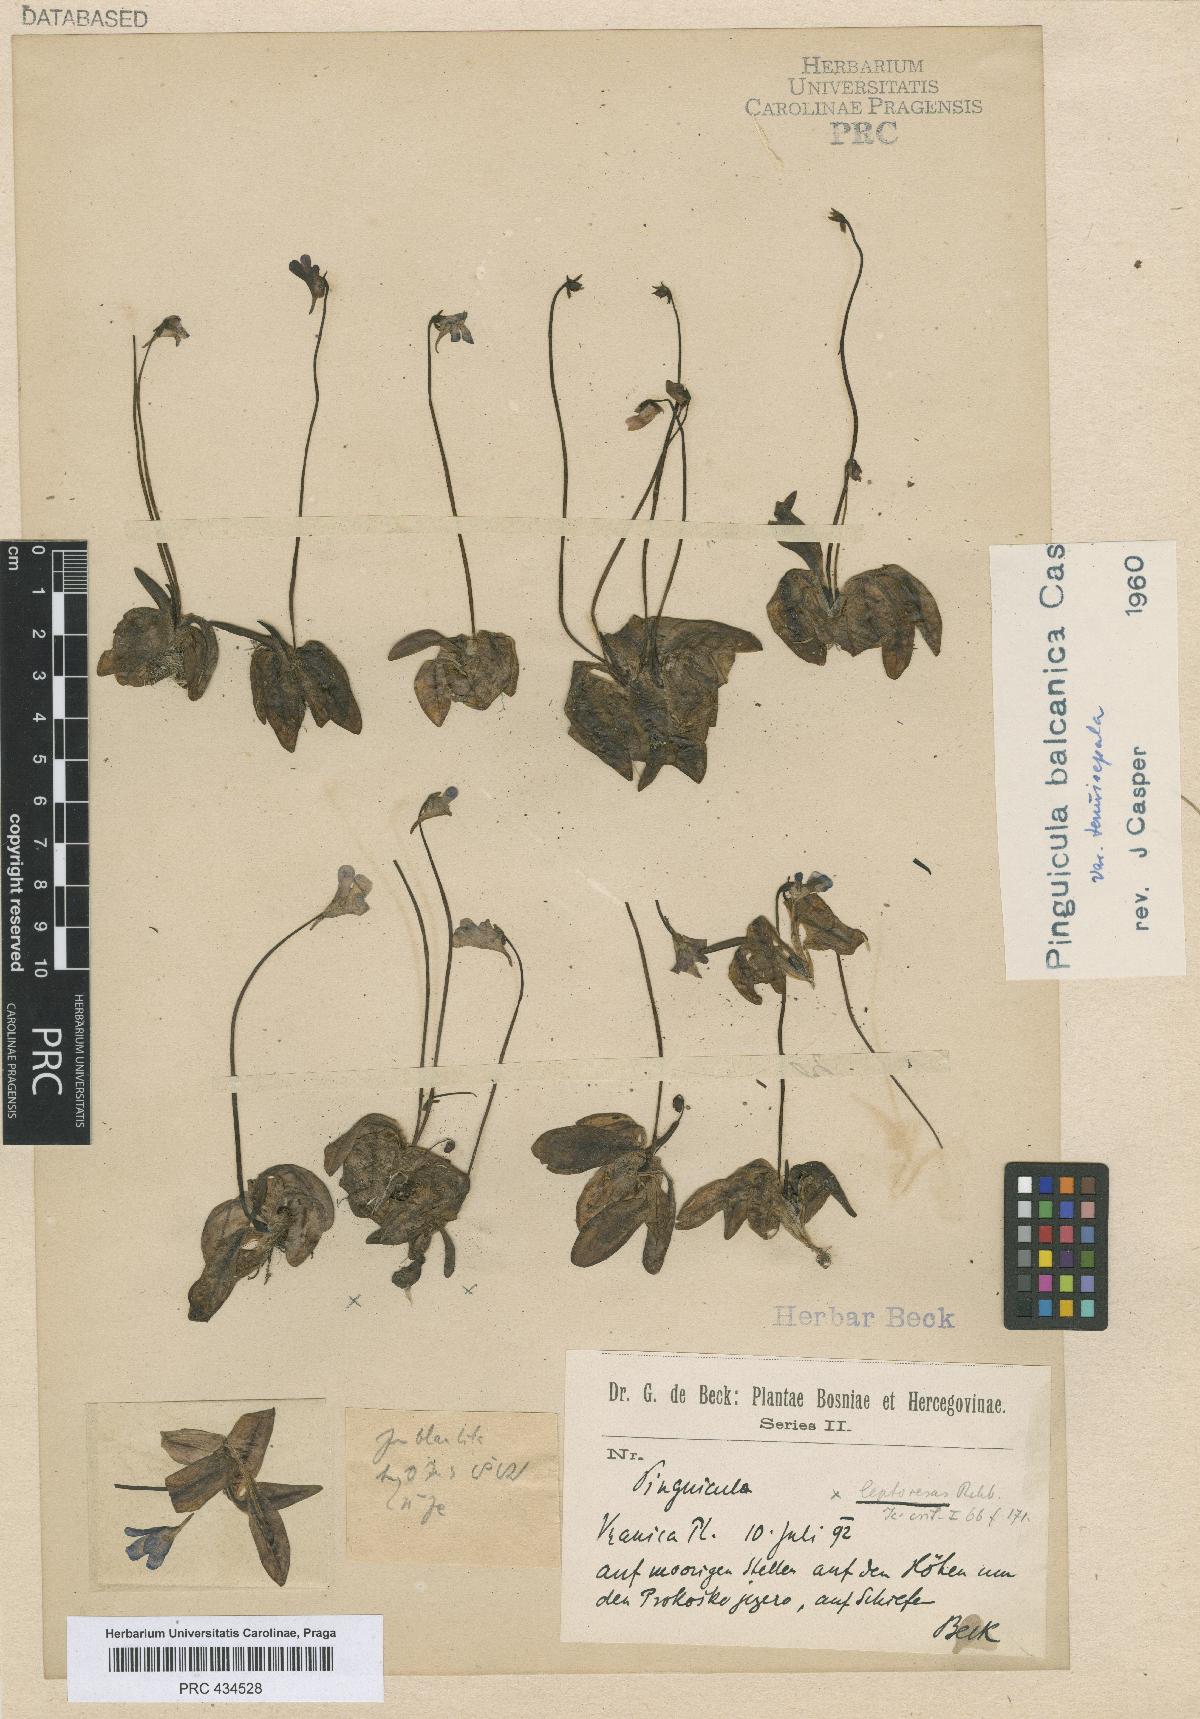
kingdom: Plantae
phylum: Tracheophyta
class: Magnoliopsida
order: Lamiales
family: Lentibulariaceae
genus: Pinguicula
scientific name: Pinguicula balcanica
